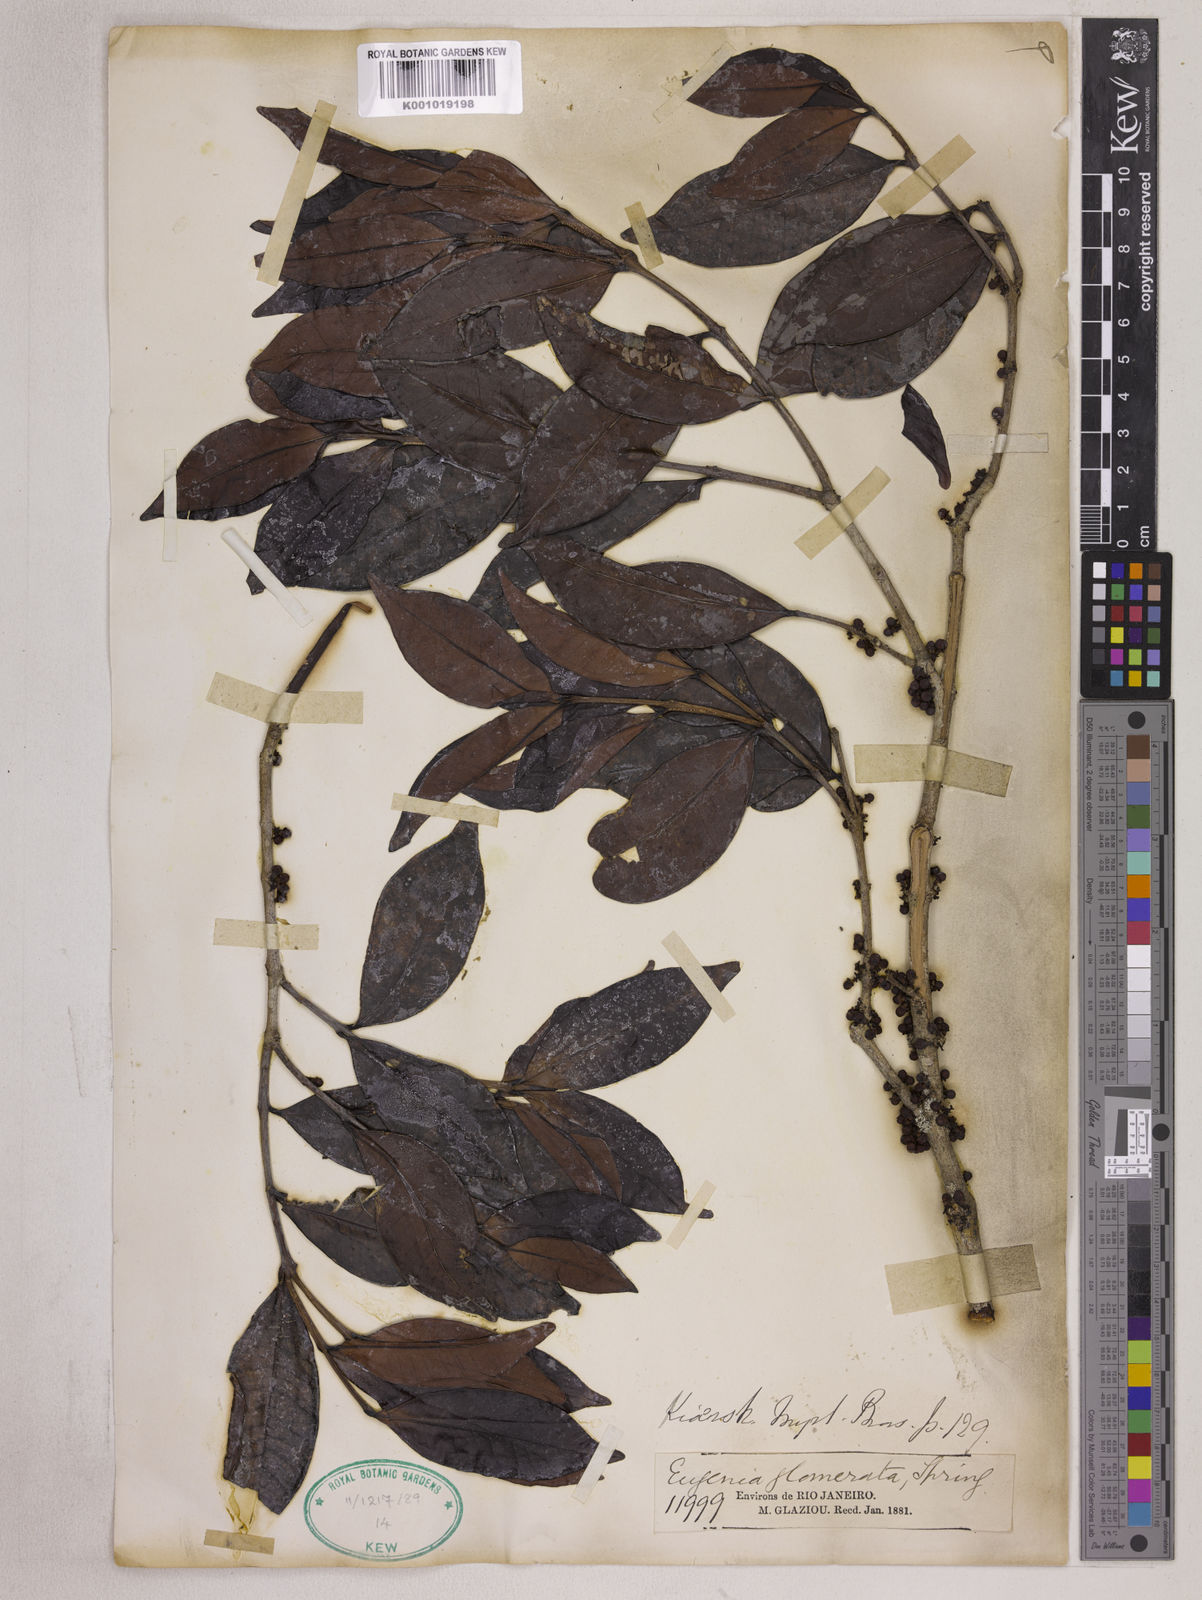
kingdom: Plantae
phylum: Tracheophyta
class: Magnoliopsida
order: Myrtales
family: Myrtaceae
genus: Eugenia
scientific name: Eugenia neoglomerata
